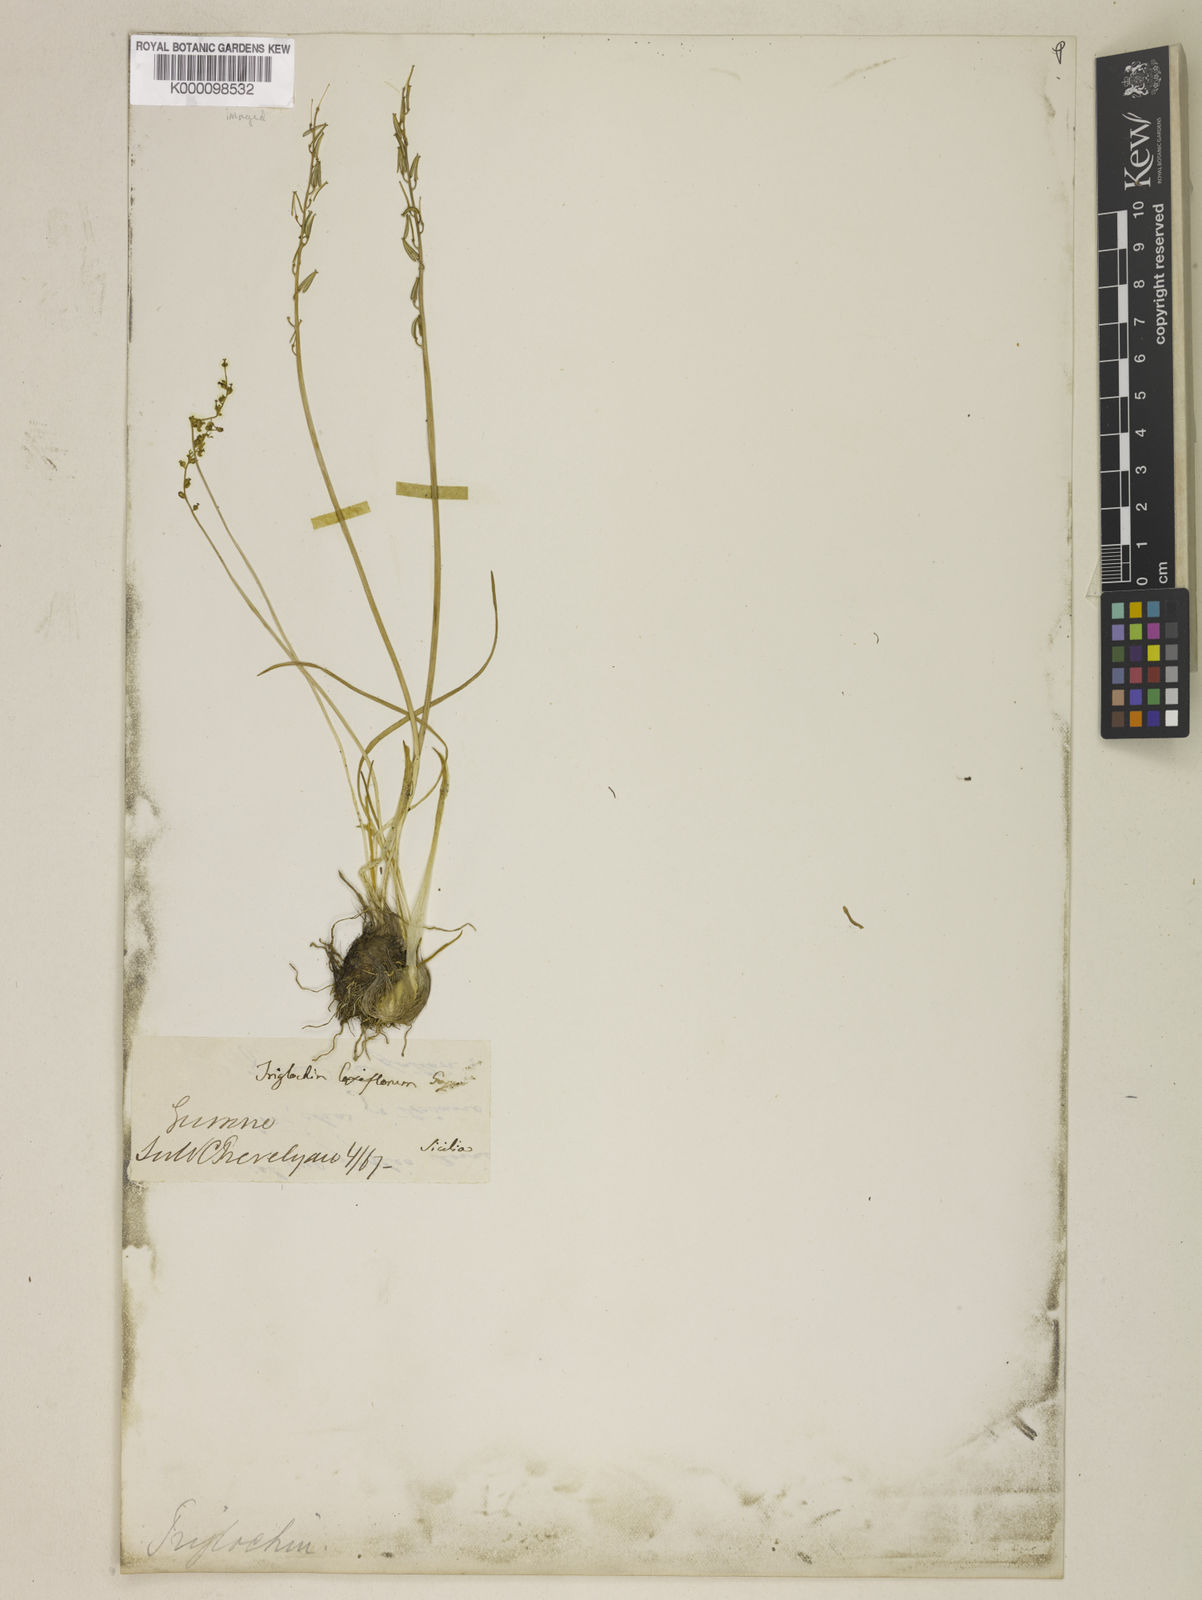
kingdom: Plantae
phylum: Tracheophyta
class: Liliopsida
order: Alismatales
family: Juncaginaceae
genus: Triglochin
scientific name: Triglochin laxiflora
